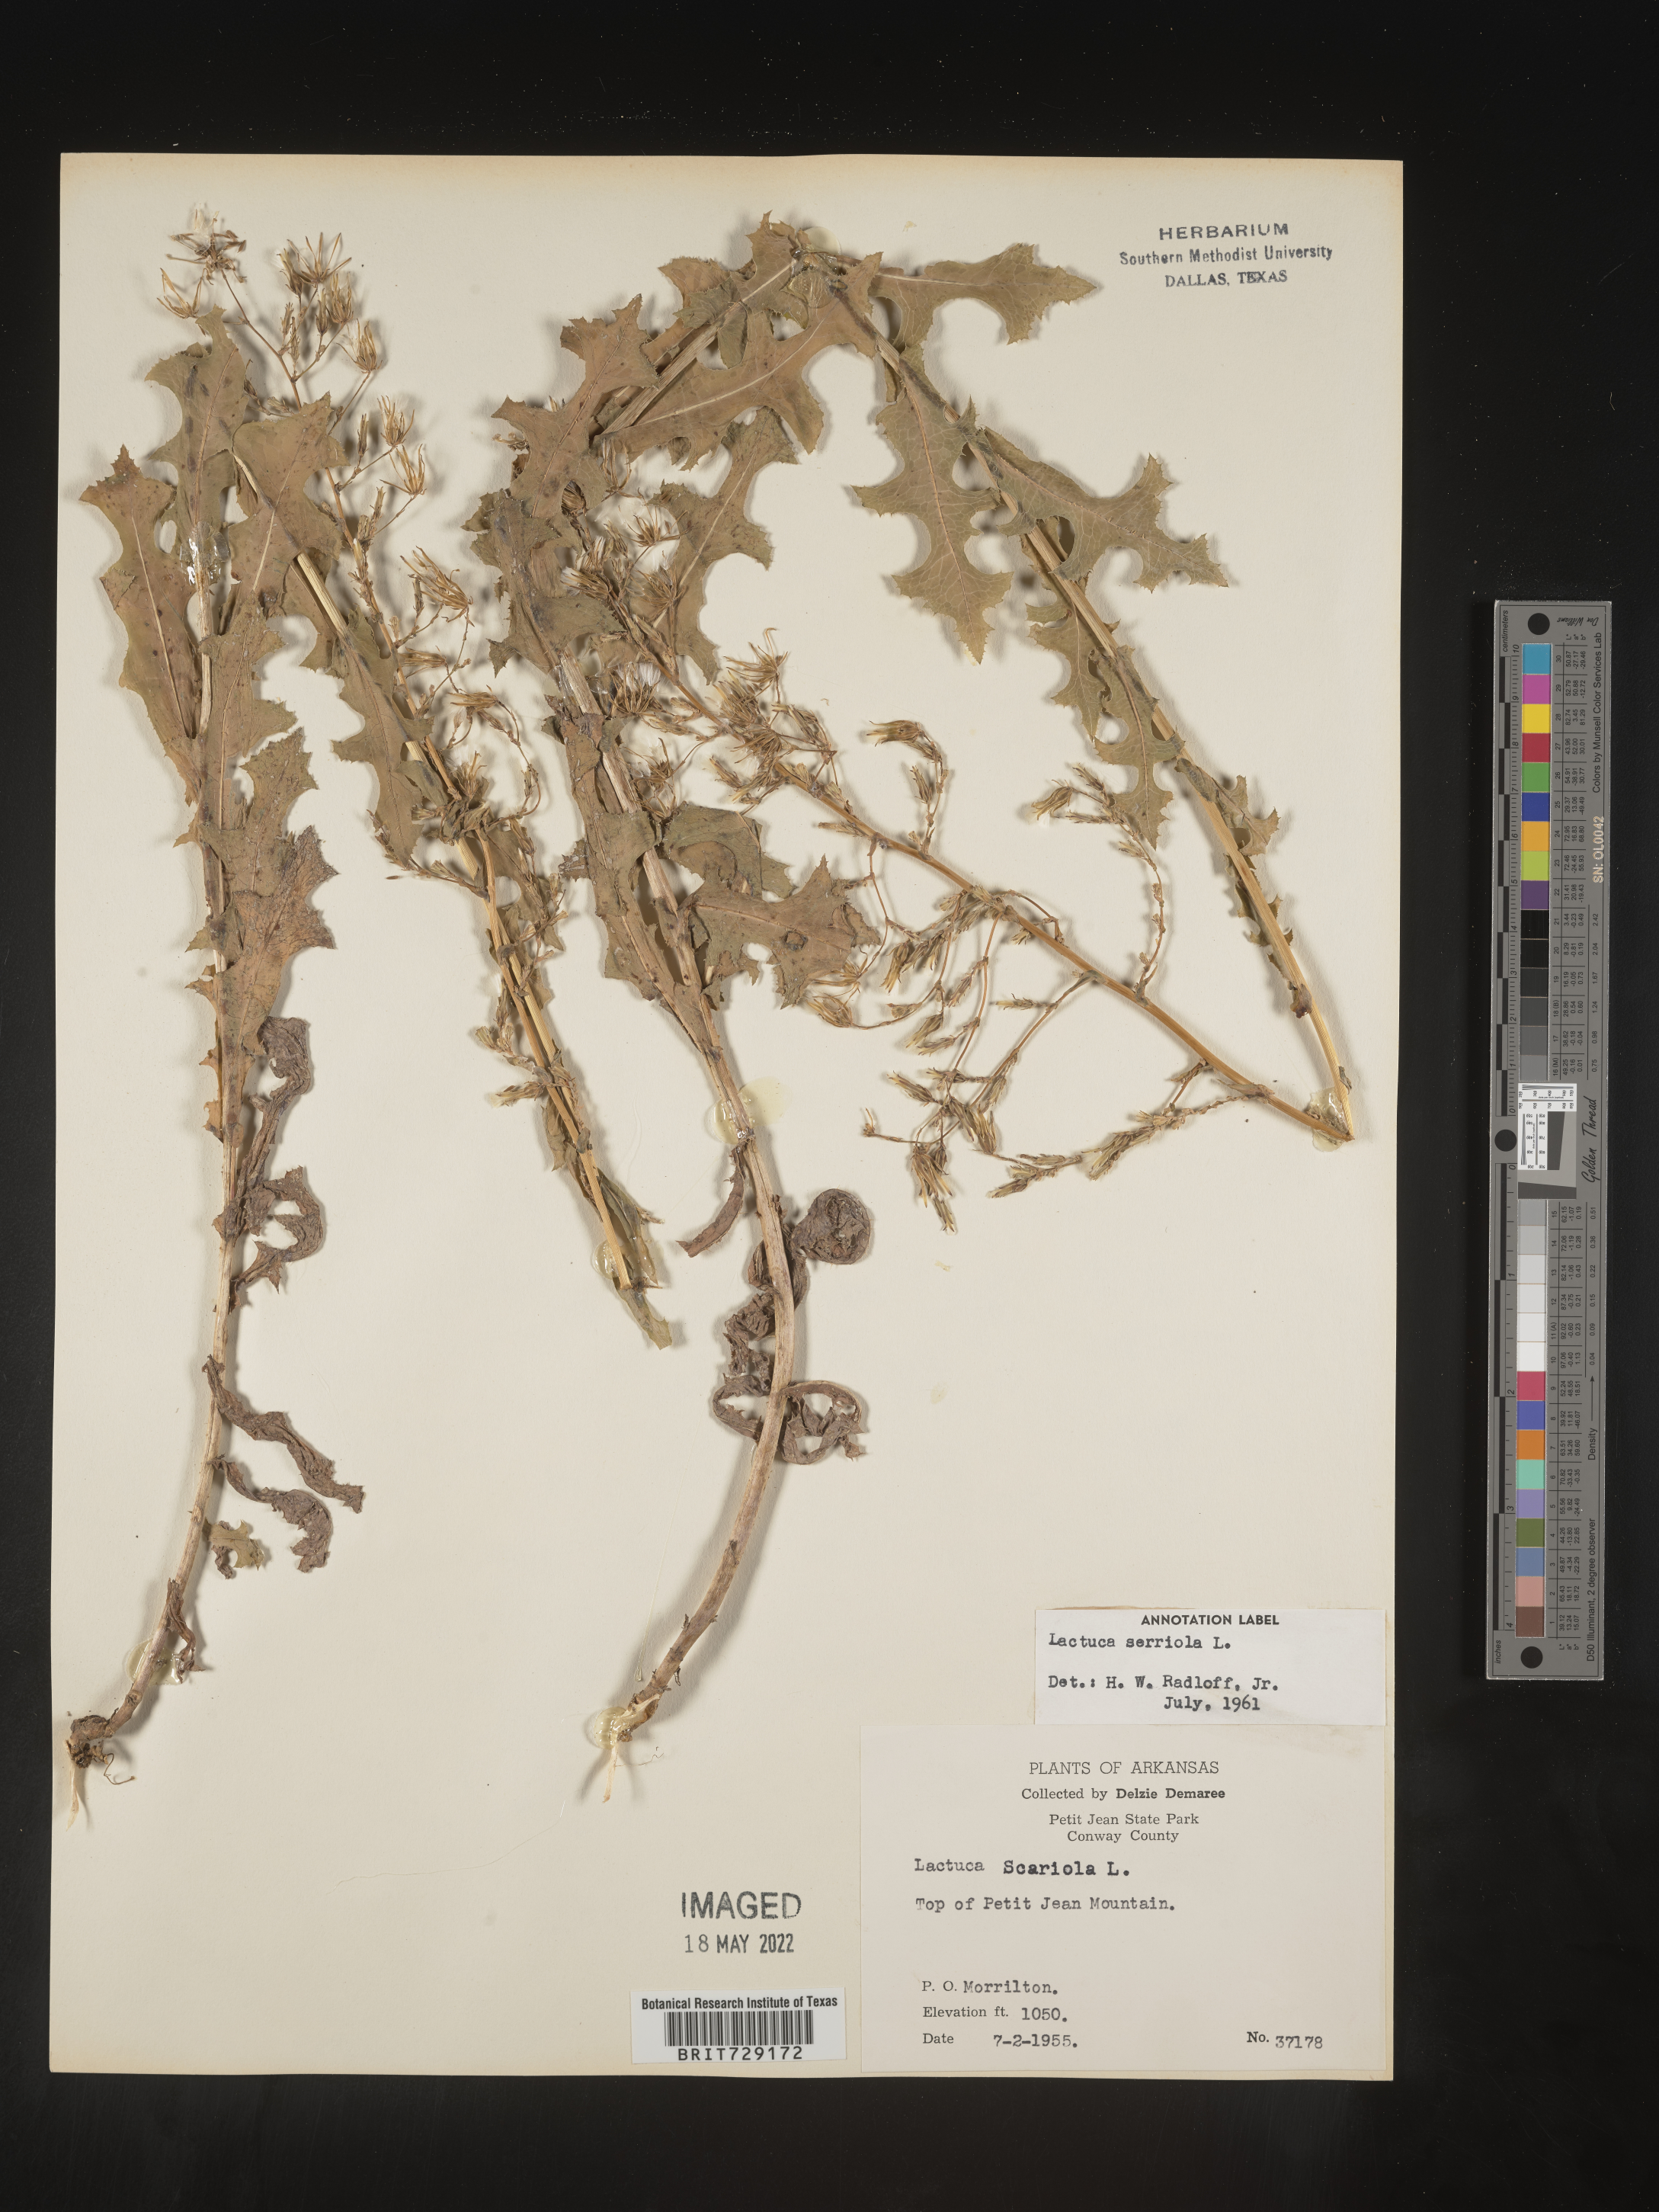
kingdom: Plantae
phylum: Tracheophyta
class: Magnoliopsida
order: Asterales
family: Asteraceae
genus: Lactuca
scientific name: Lactuca serriola
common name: Prickly lettuce
